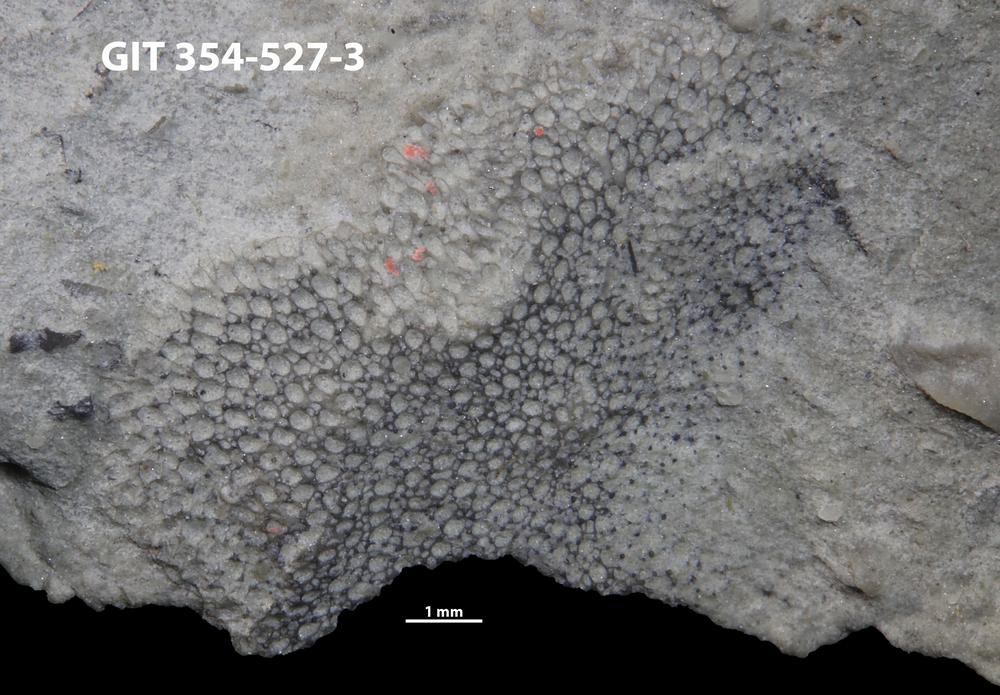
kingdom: Animalia
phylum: Bryozoa
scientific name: Bryozoa
